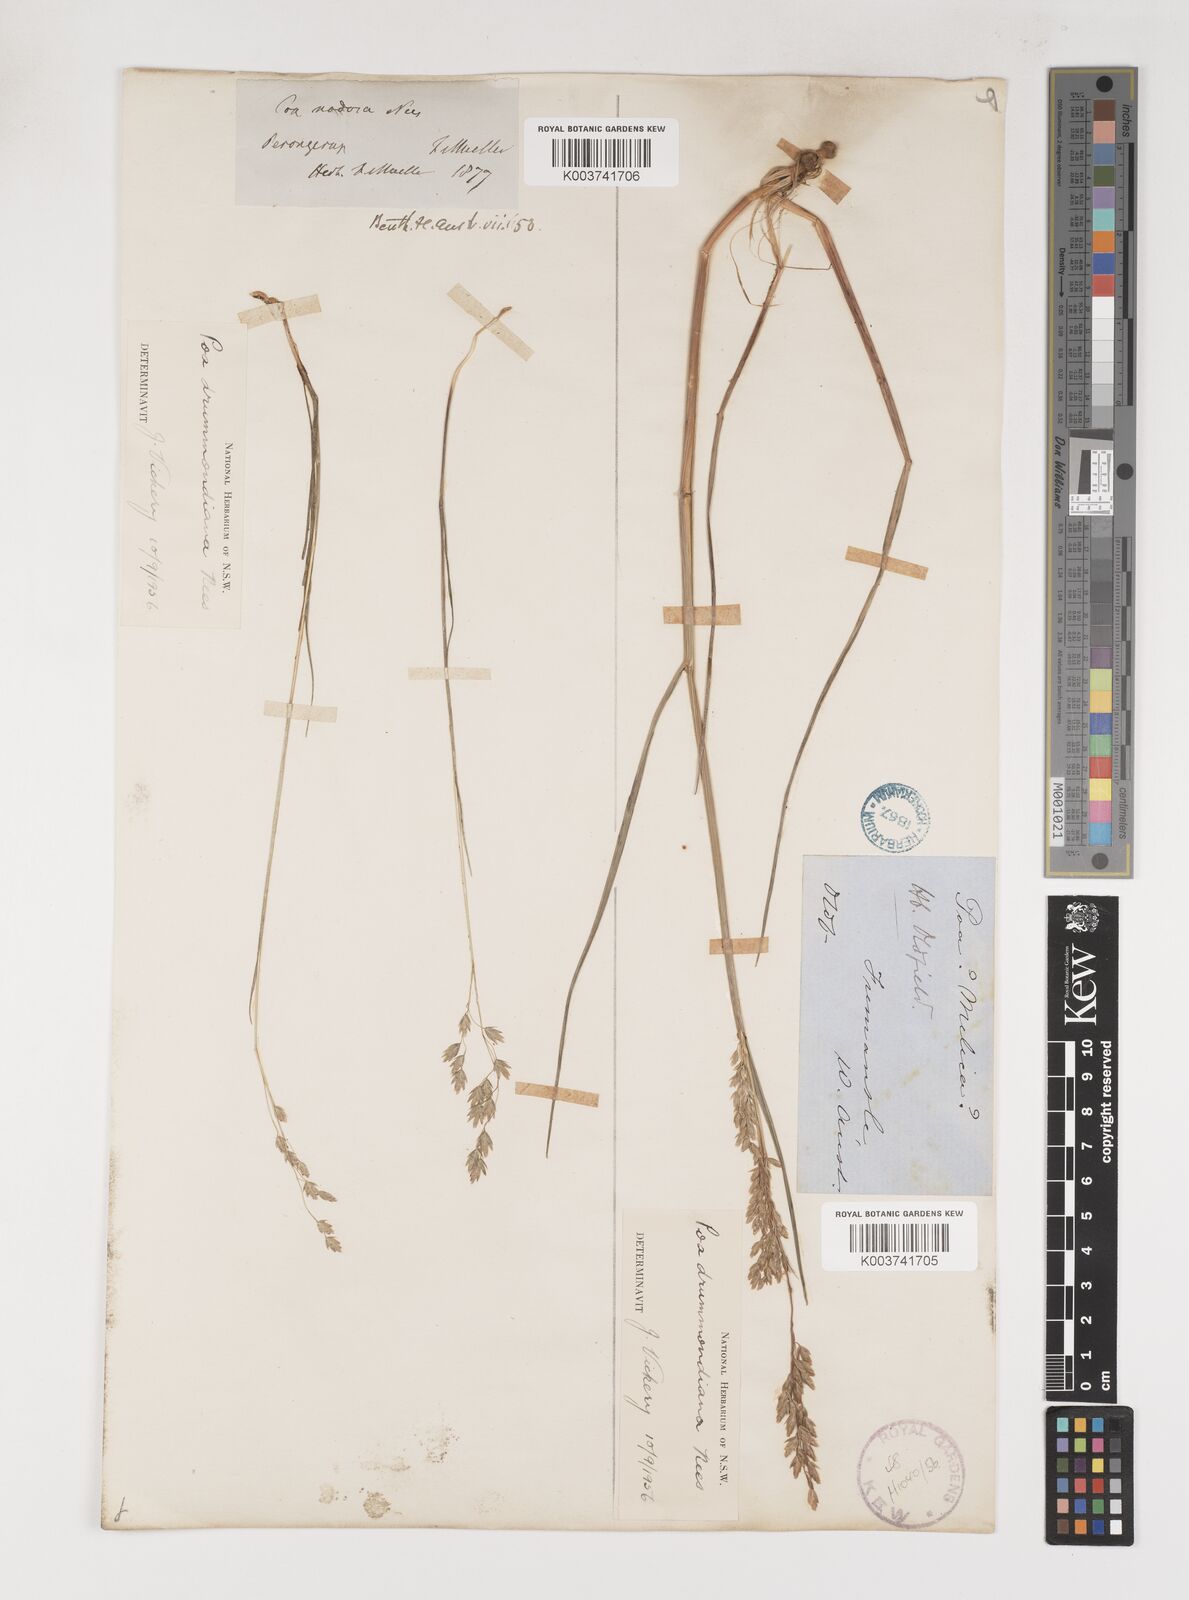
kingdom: Plantae
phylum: Tracheophyta
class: Liliopsida
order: Poales
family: Poaceae
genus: Poa
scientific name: Poa drummondiana
